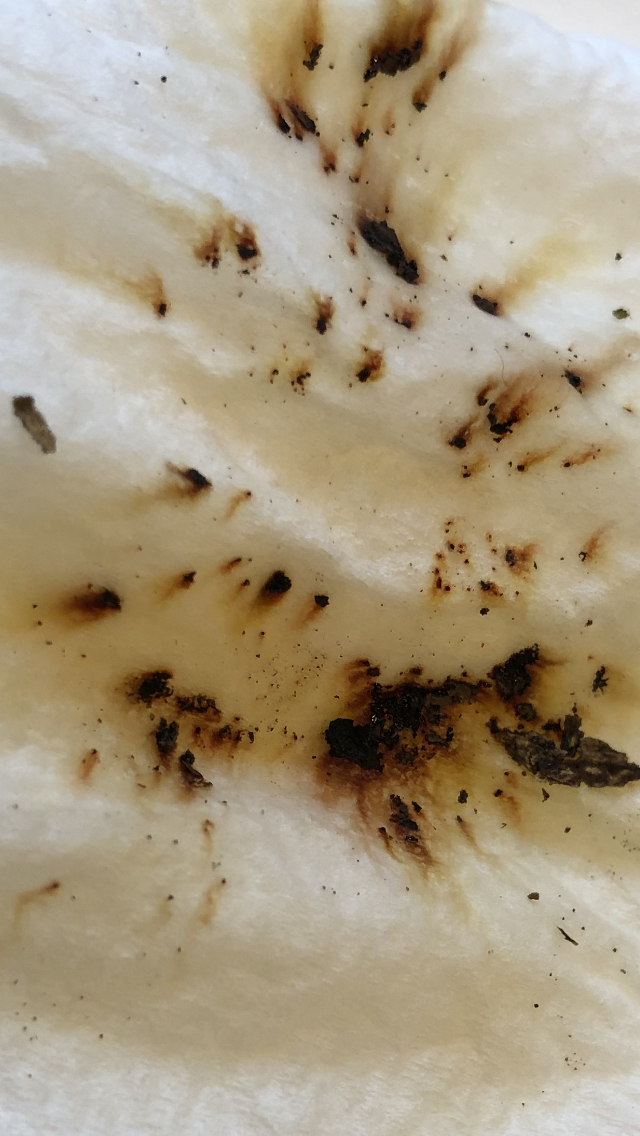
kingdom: Fungi
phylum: Ascomycota
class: Sordariomycetes
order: Xylariales
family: Hypoxylaceae
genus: Hypoxylon
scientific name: Hypoxylon petriniae
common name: nedsænket kulbær
